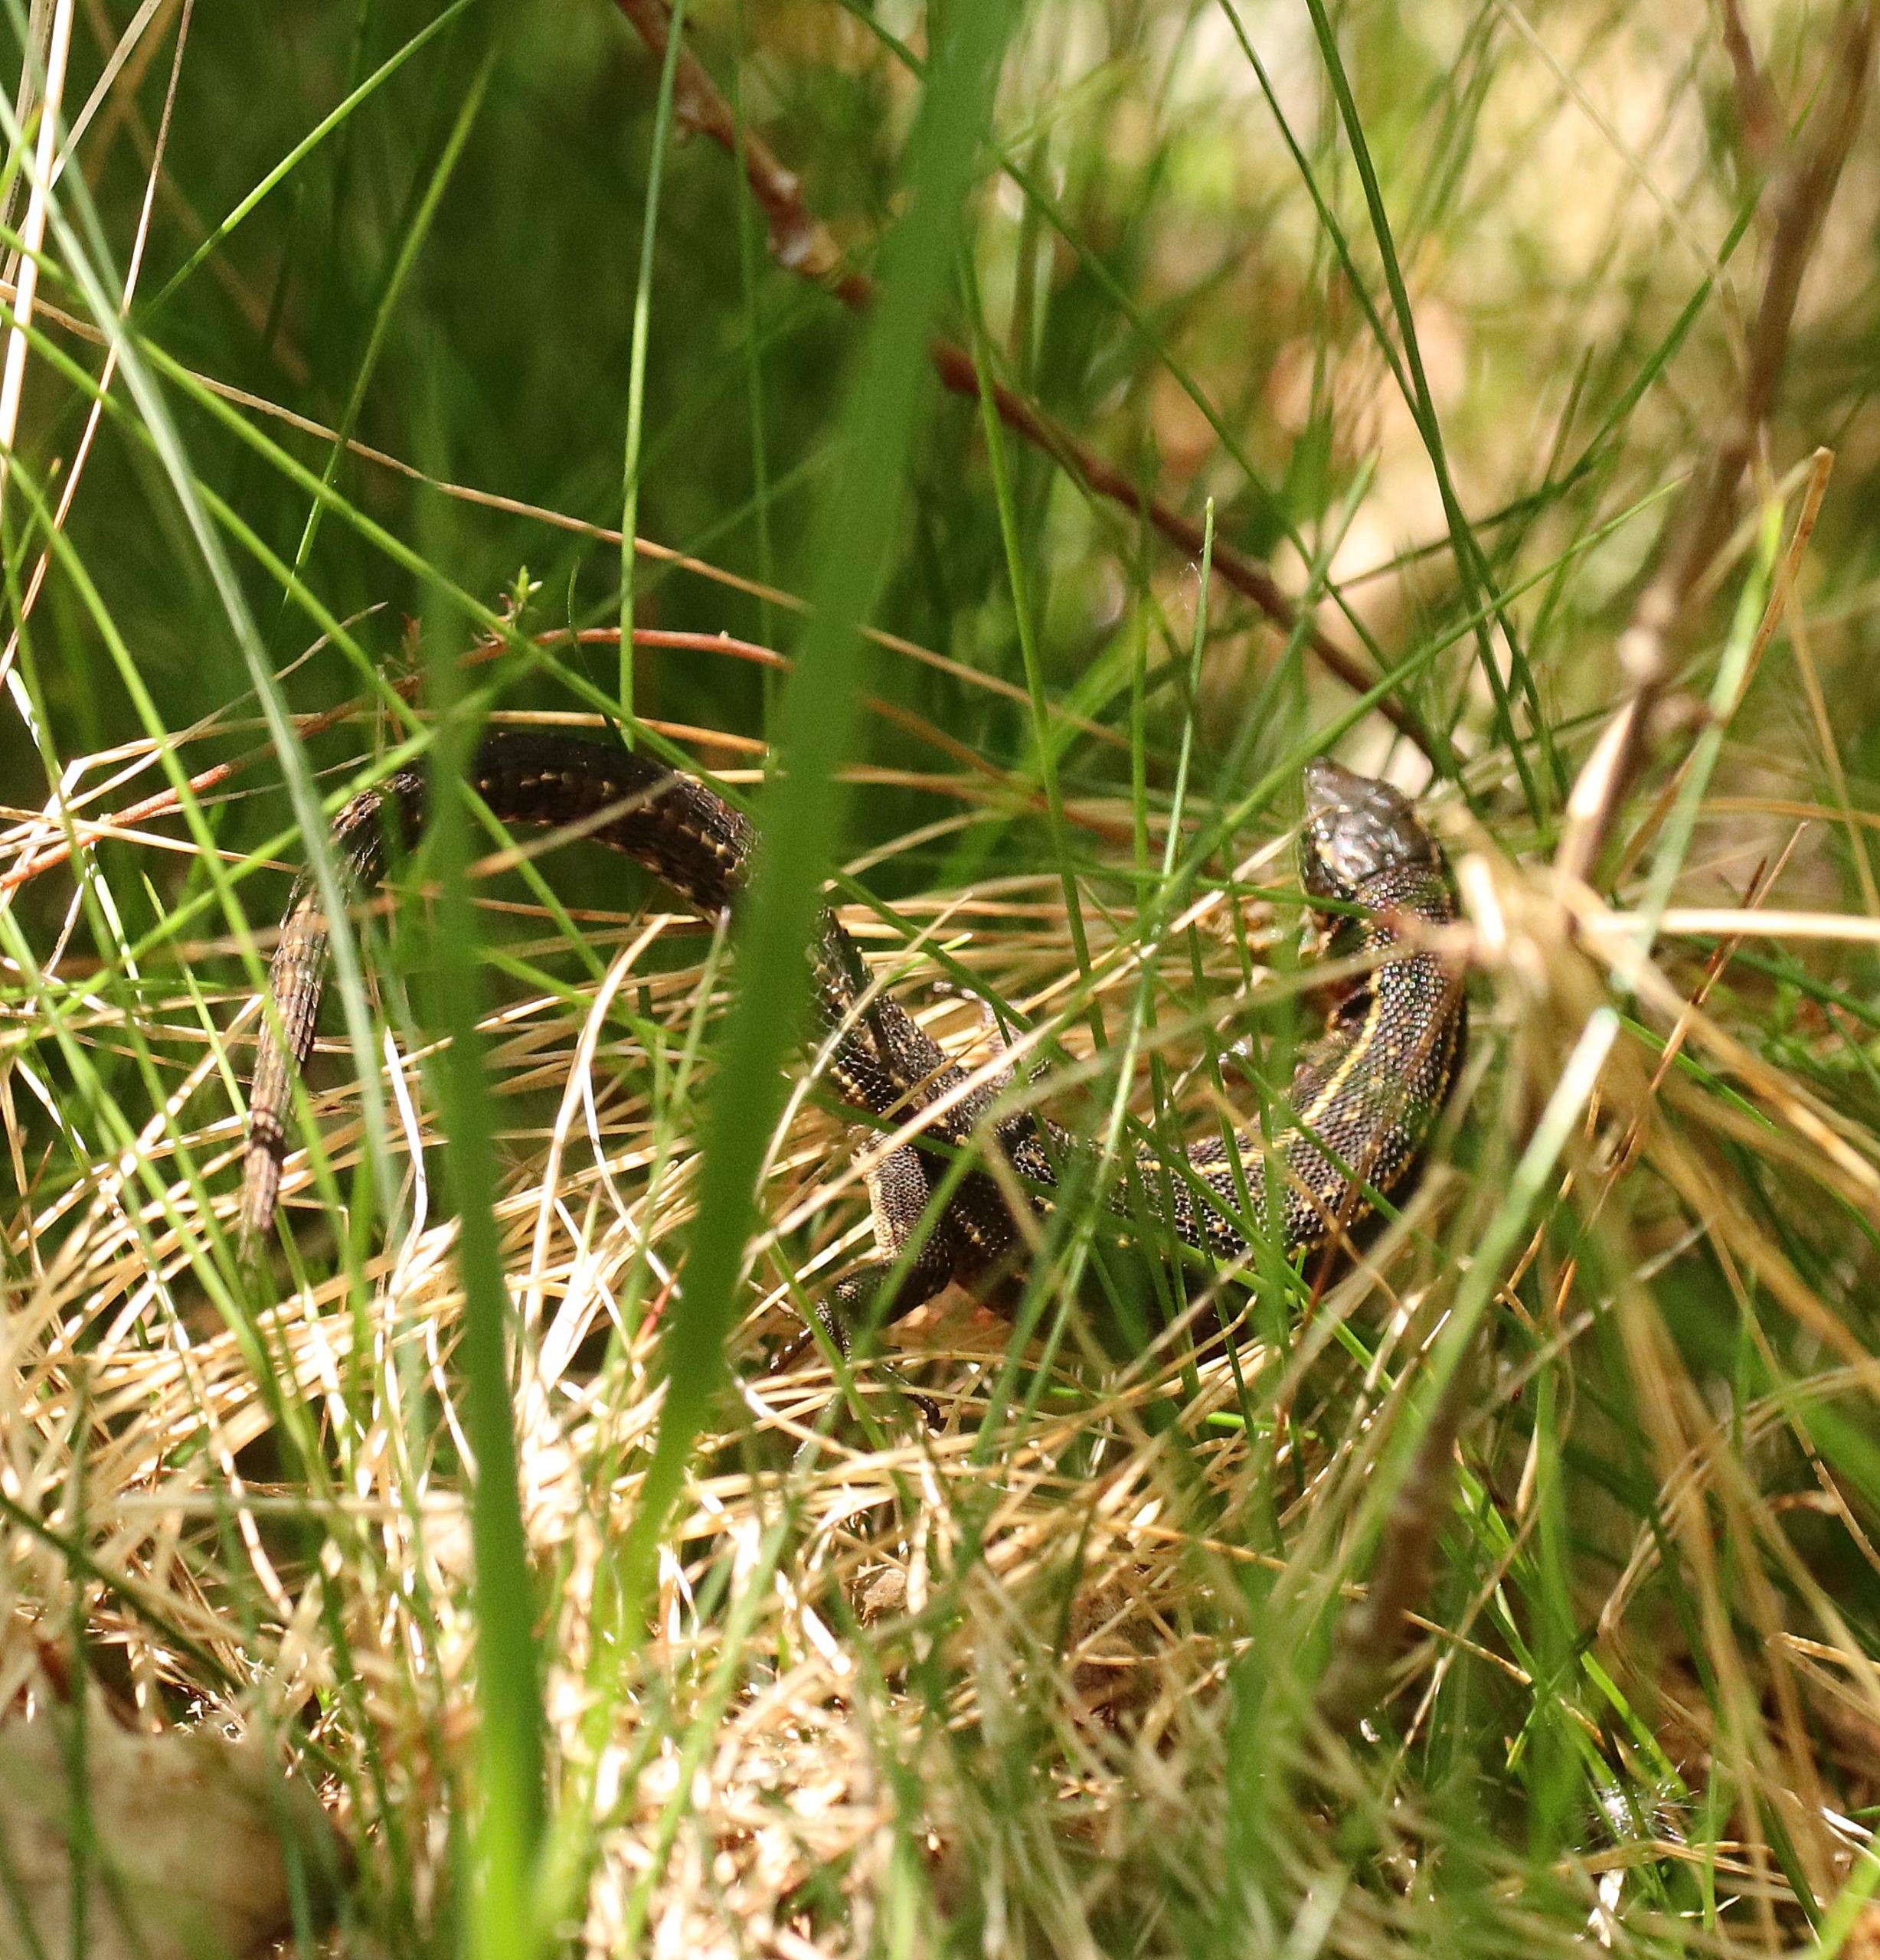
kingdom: Animalia
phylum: Chordata
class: Squamata
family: Lacertidae
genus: Zootoca
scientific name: Zootoca vivipara
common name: Skovfirben
